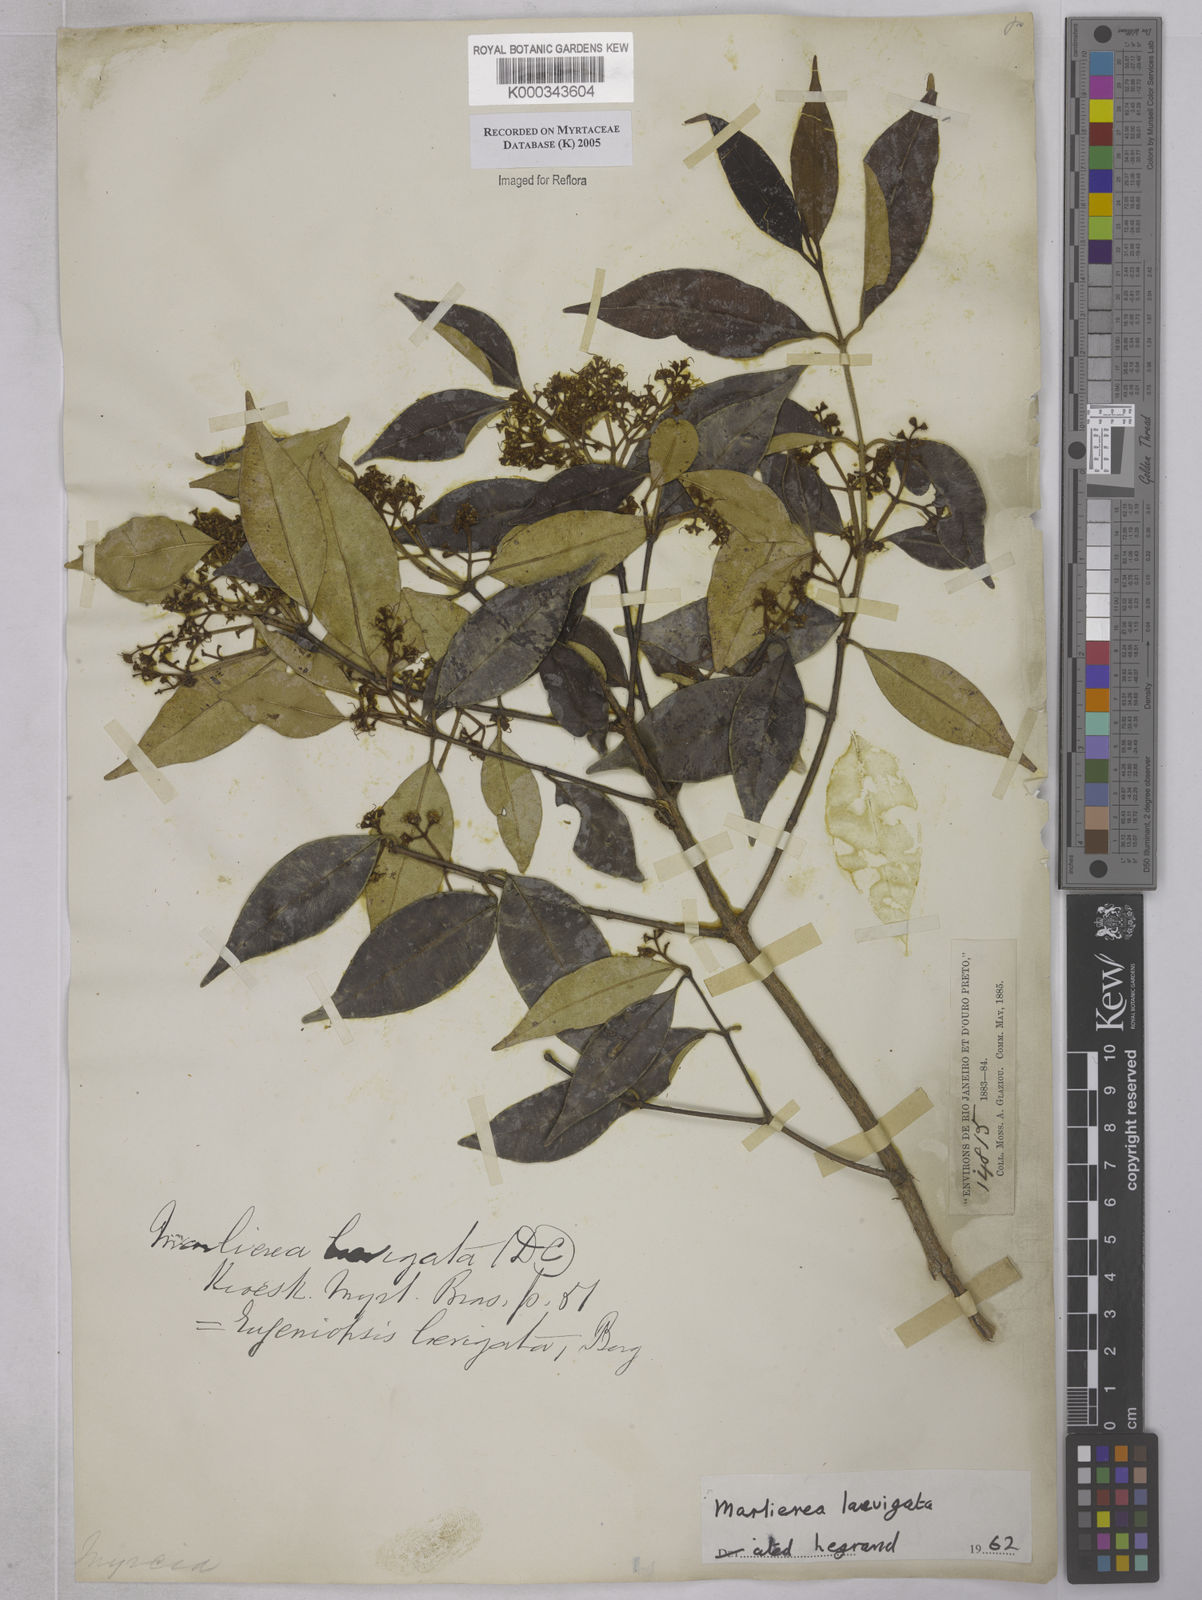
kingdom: Plantae
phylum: Tracheophyta
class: Magnoliopsida
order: Myrtales
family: Myrtaceae
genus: Myrcia
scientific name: Myrcia multipunctata
